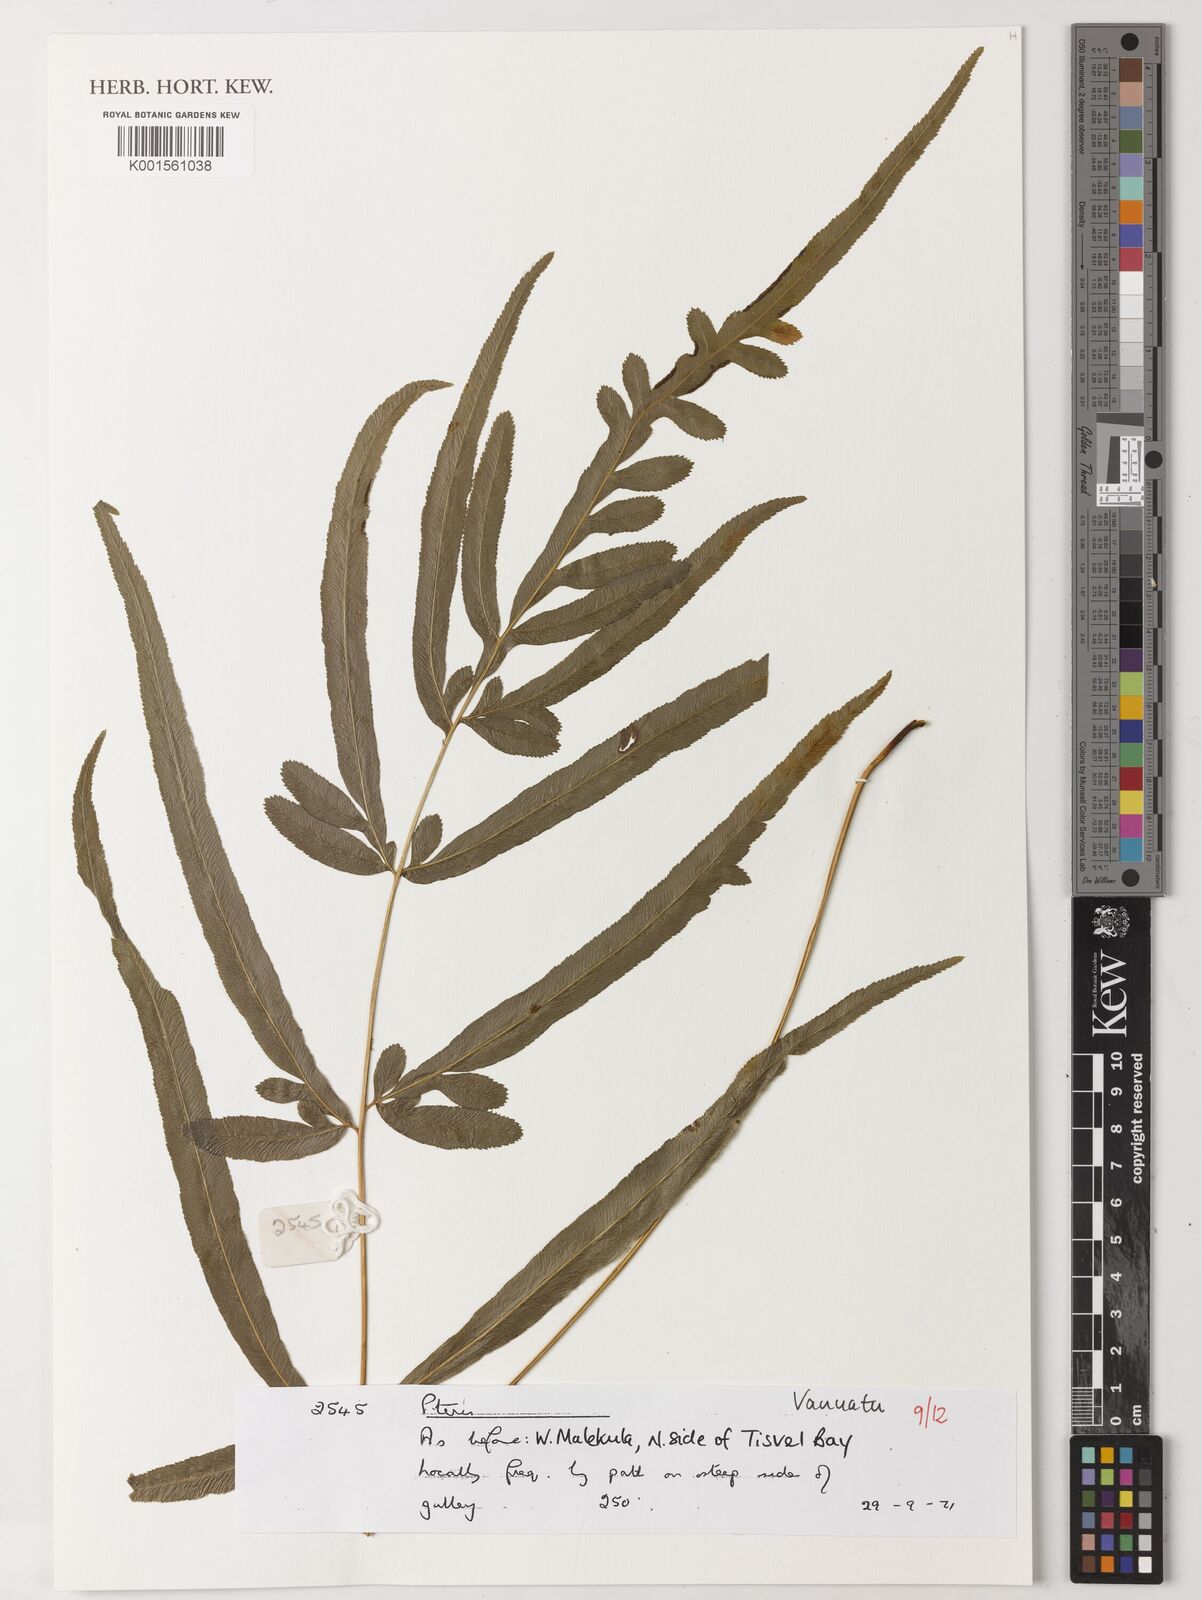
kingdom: Plantae
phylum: Tracheophyta
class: Polypodiopsida
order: Polypodiales
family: Pteridaceae
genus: Pteris
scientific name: Pteris
